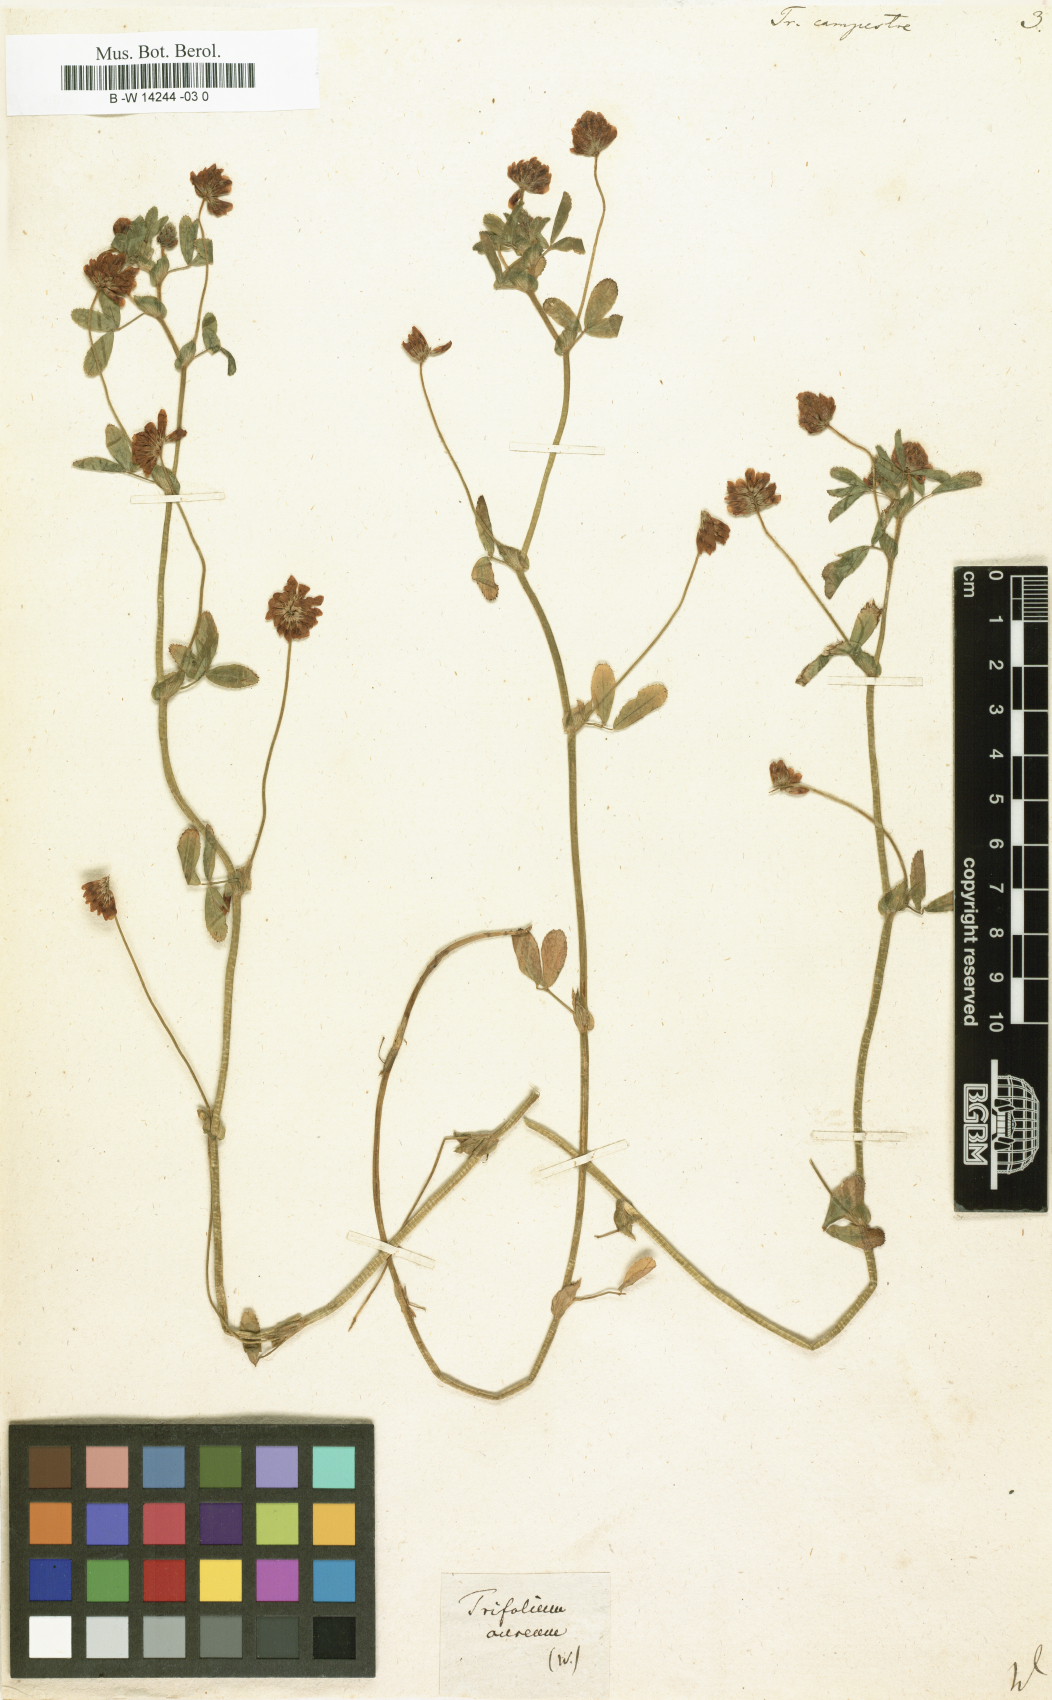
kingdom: Plantae
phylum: Tracheophyta
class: Magnoliopsida
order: Fabales
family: Fabaceae
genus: Trifolium
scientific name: Trifolium campestre
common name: Field clover
